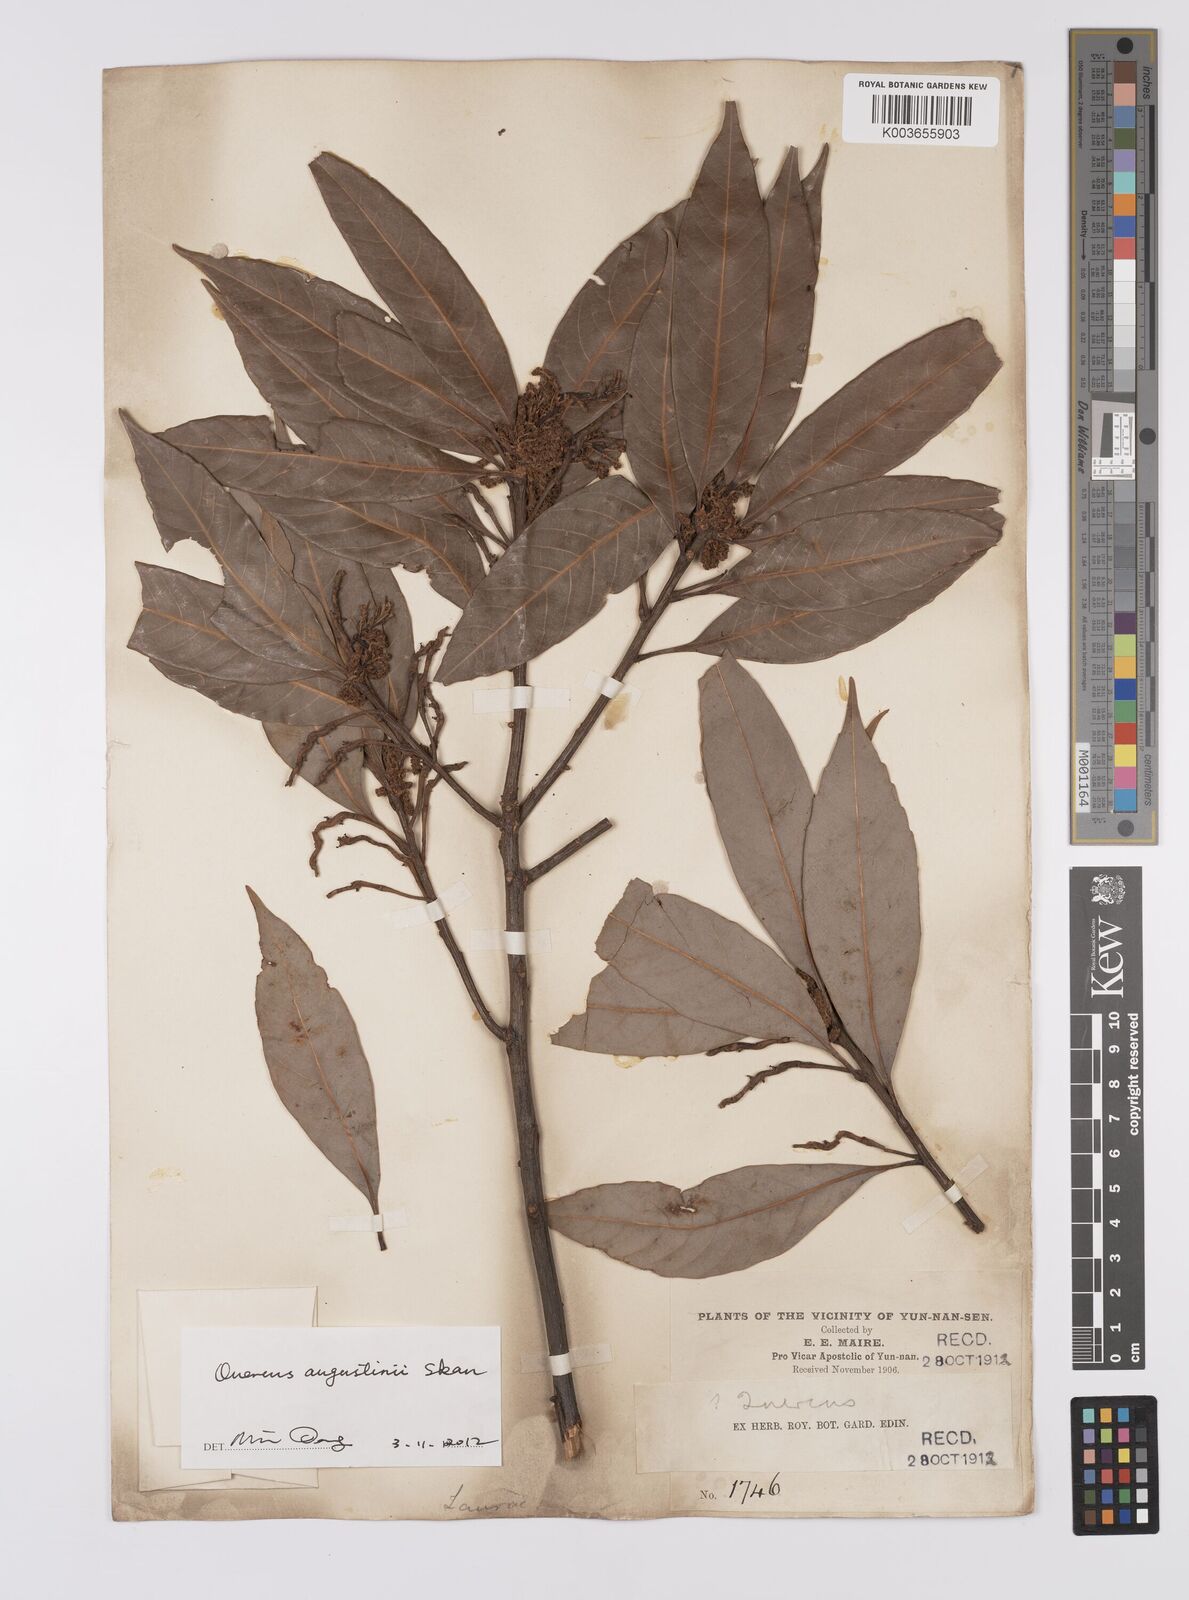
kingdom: Plantae
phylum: Tracheophyta
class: Magnoliopsida
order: Fagales
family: Fagaceae
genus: Quercus
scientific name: Quercus augustini
